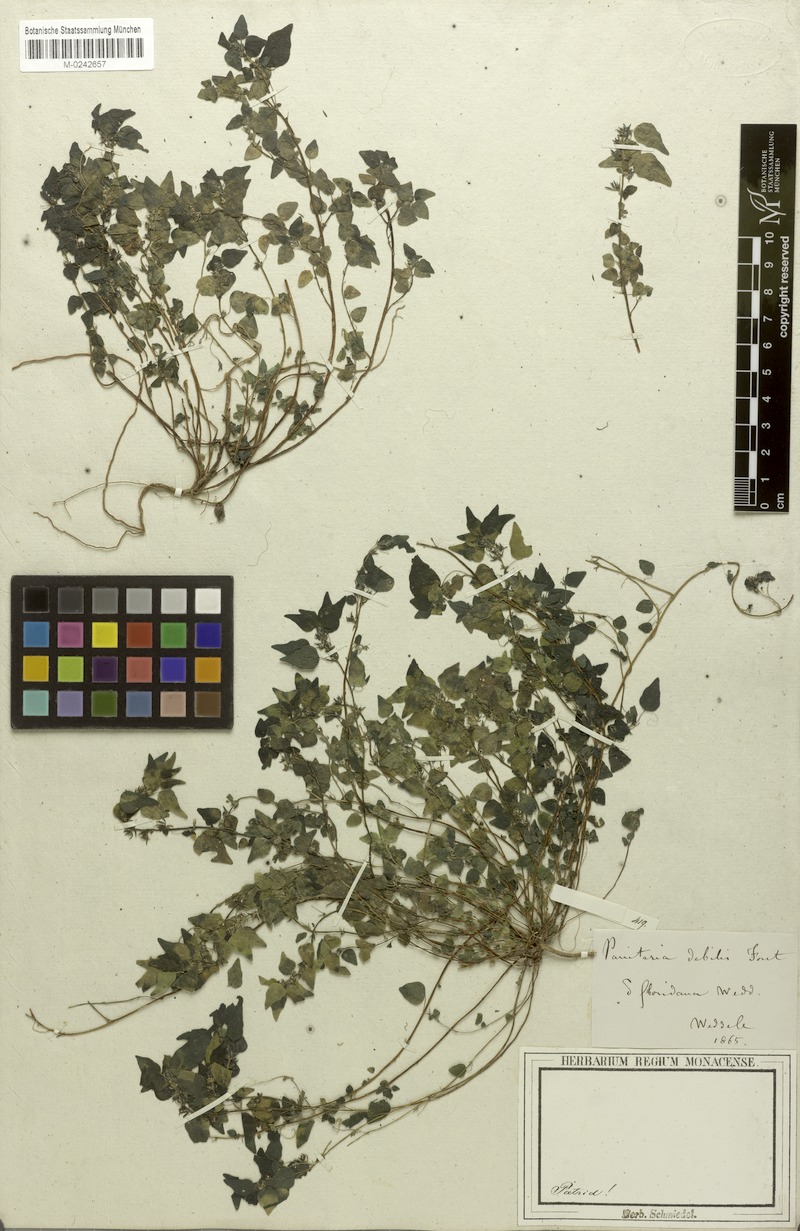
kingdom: Plantae
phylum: Tracheophyta
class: Magnoliopsida
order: Rosales
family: Urticaceae
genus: Parietaria
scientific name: Parietaria debilis
